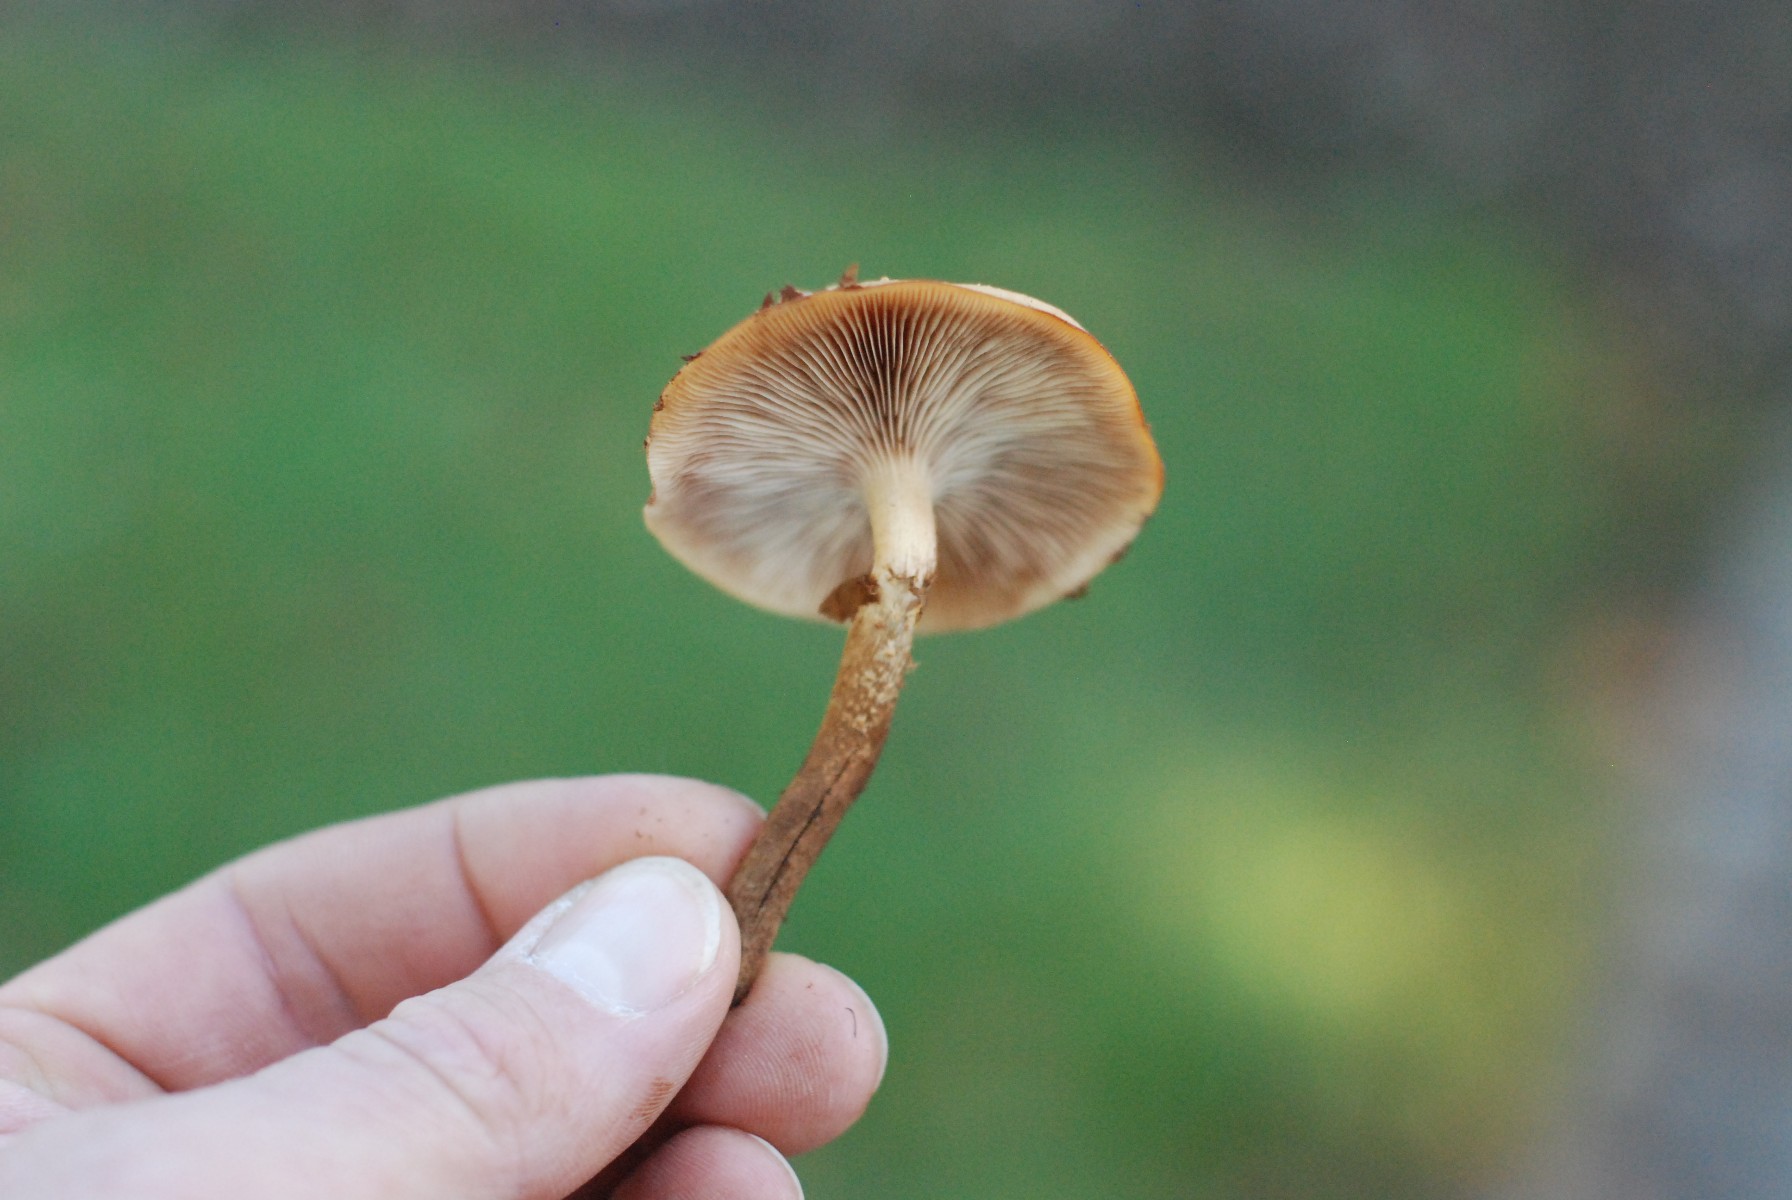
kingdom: Fungi
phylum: Basidiomycota
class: Agaricomycetes
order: Agaricales
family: Strophariaceae
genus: Kuehneromyces
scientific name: Kuehneromyces mutabilis
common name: foranderlig skælhat
